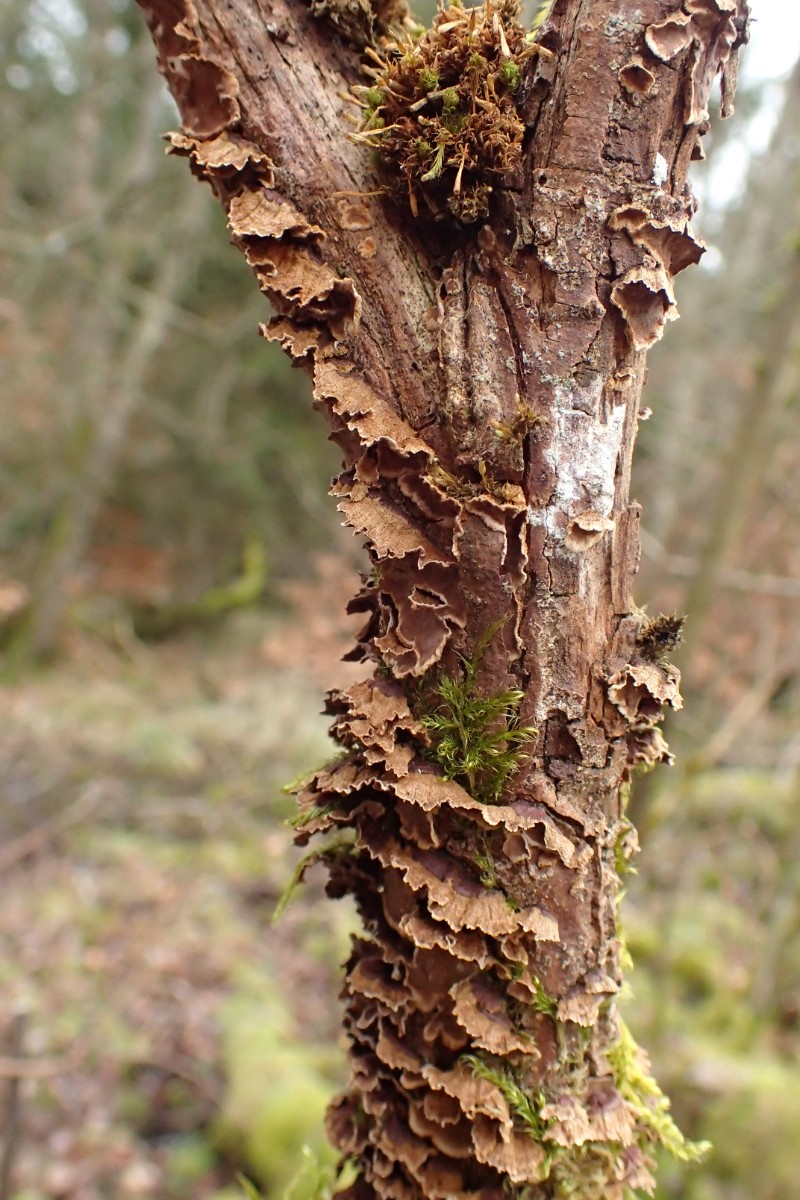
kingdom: Fungi
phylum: Basidiomycota
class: Agaricomycetes
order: Hymenochaetales
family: Hymenochaetaceae
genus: Hydnoporia
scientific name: Hydnoporia tabacina
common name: tobaksbrun ruslædersvamp
